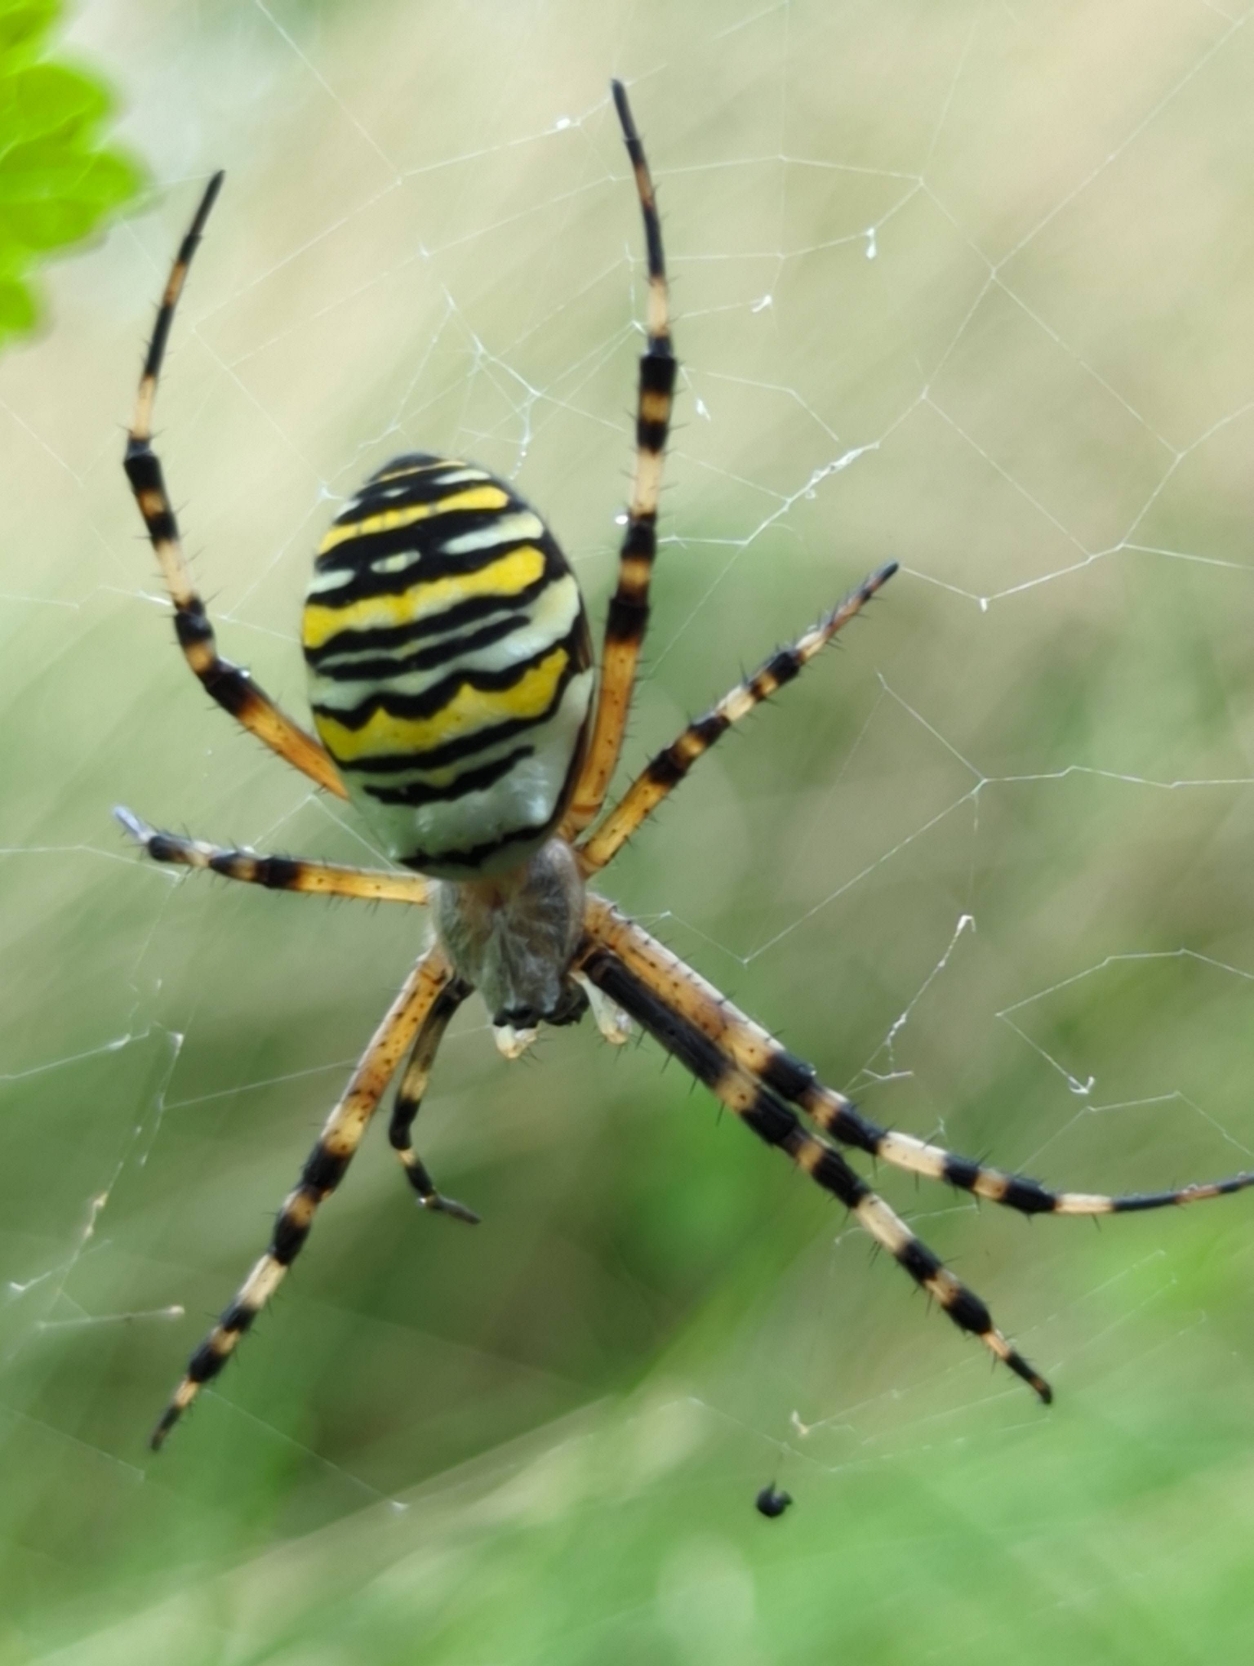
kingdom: Animalia
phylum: Arthropoda
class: Arachnida
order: Araneae
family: Araneidae
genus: Argiope
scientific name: Argiope bruennichi
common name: Hvepseedderkop
